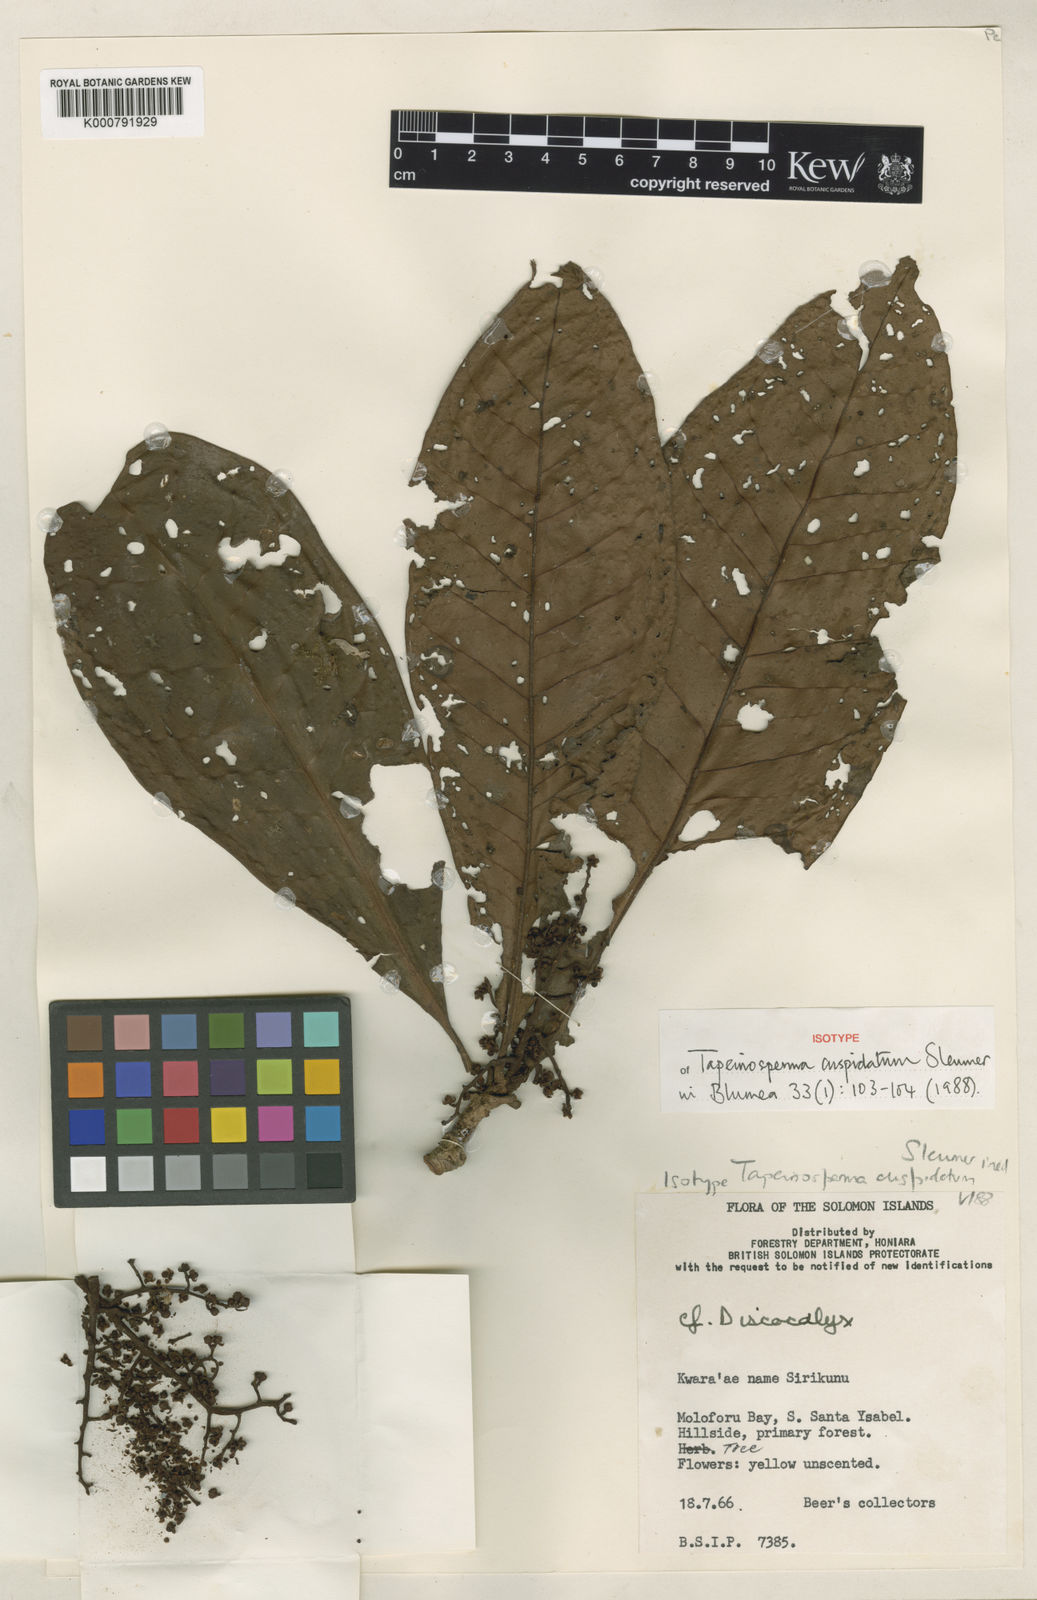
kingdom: Plantae
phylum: Tracheophyta
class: Magnoliopsida
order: Ericales
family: Primulaceae
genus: Tapeinosperma
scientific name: Tapeinosperma cuspidatum
